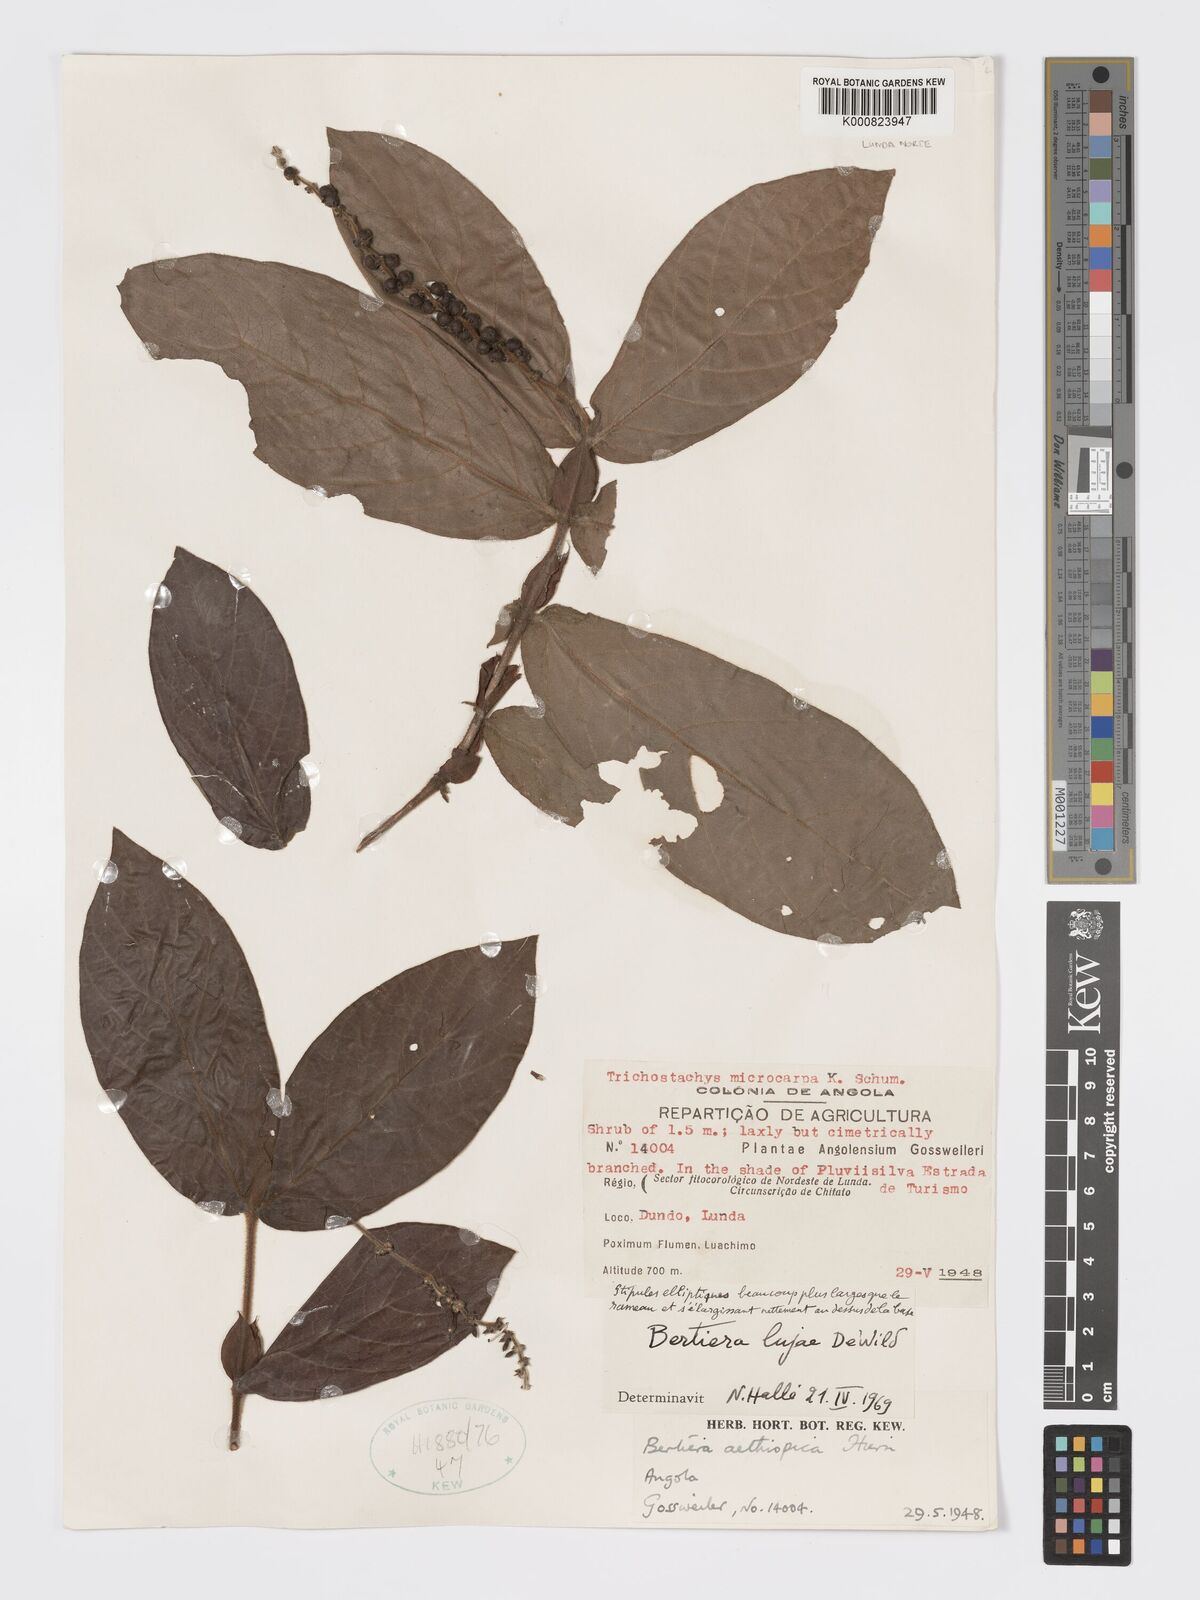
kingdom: Plantae
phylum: Tracheophyta
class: Magnoliopsida
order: Gentianales
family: Rubiaceae
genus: Bertiera
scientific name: Bertiera lujae
